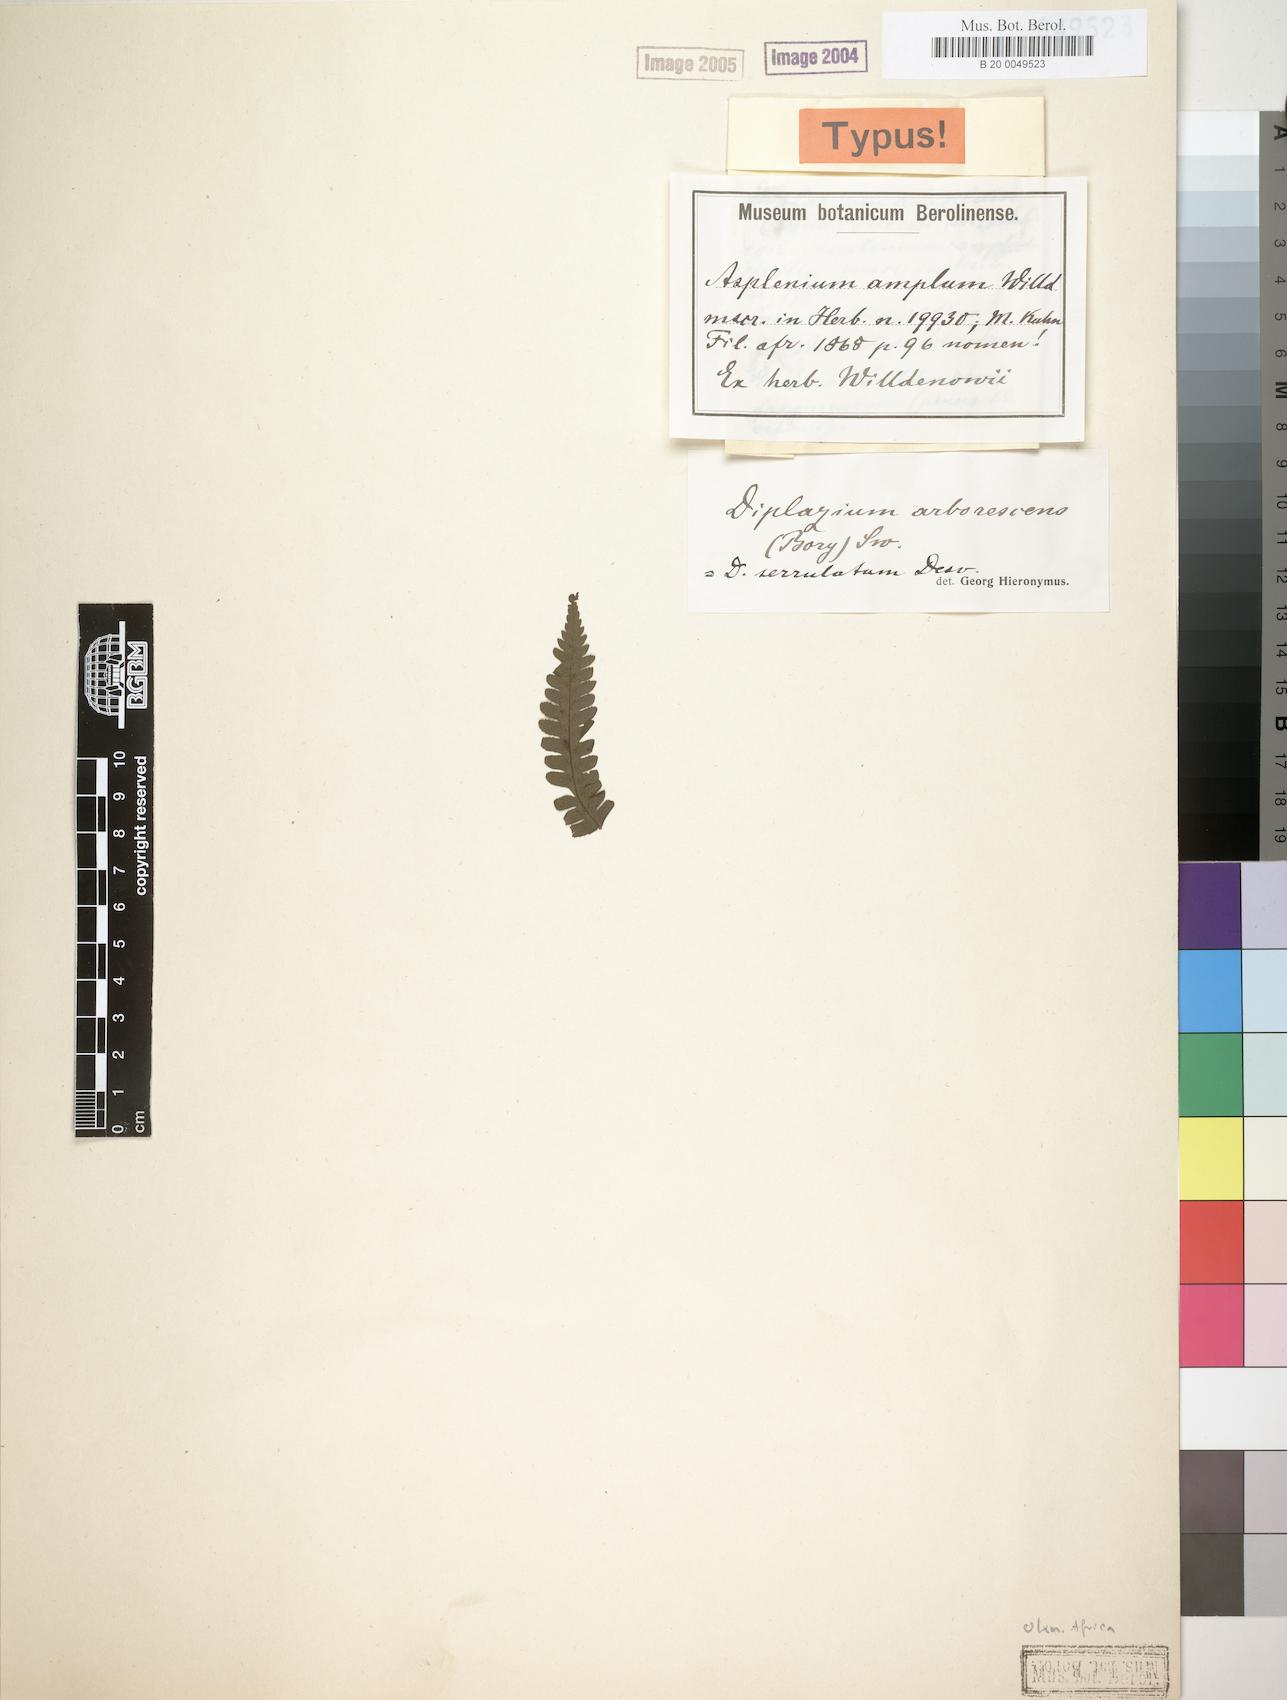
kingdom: Plantae
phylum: Tracheophyta
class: Polypodiopsida
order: Polypodiales
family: Athyriaceae
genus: Diplazium
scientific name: Diplazium arborescens
